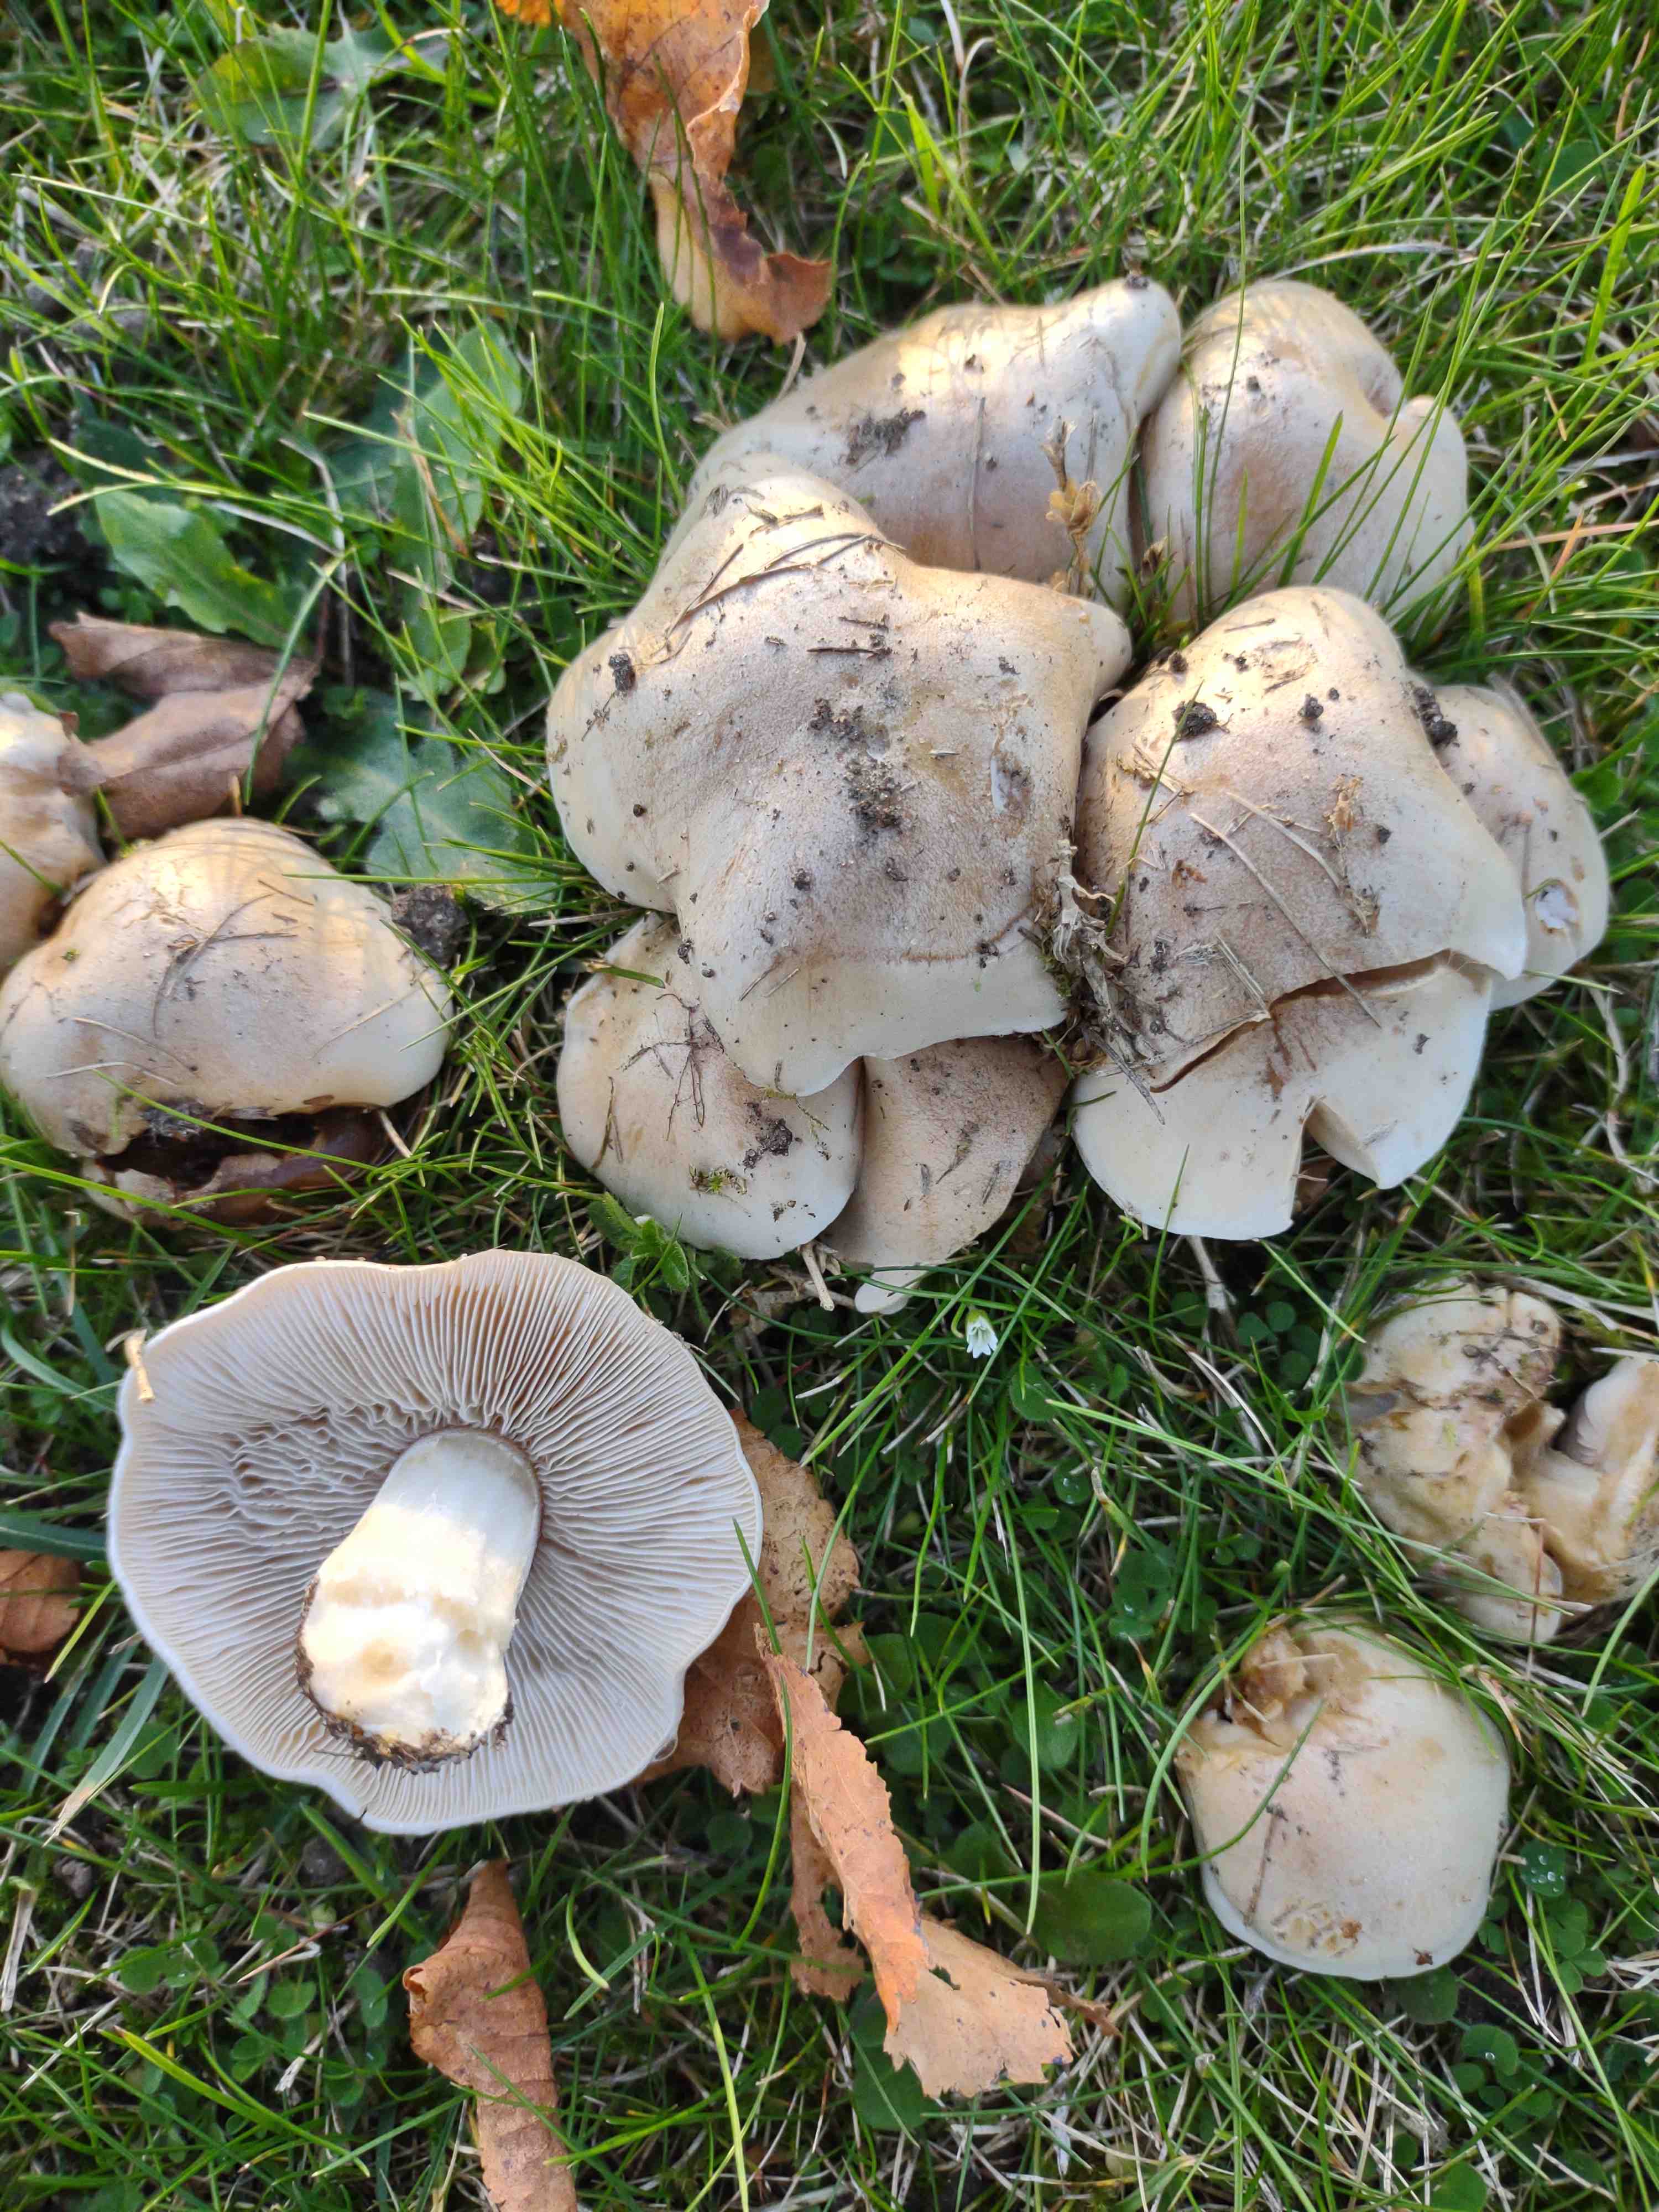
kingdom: Fungi
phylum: Basidiomycota
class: Agaricomycetes
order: Agaricales
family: Hymenogastraceae
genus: Hebeloma
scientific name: Hebeloma
